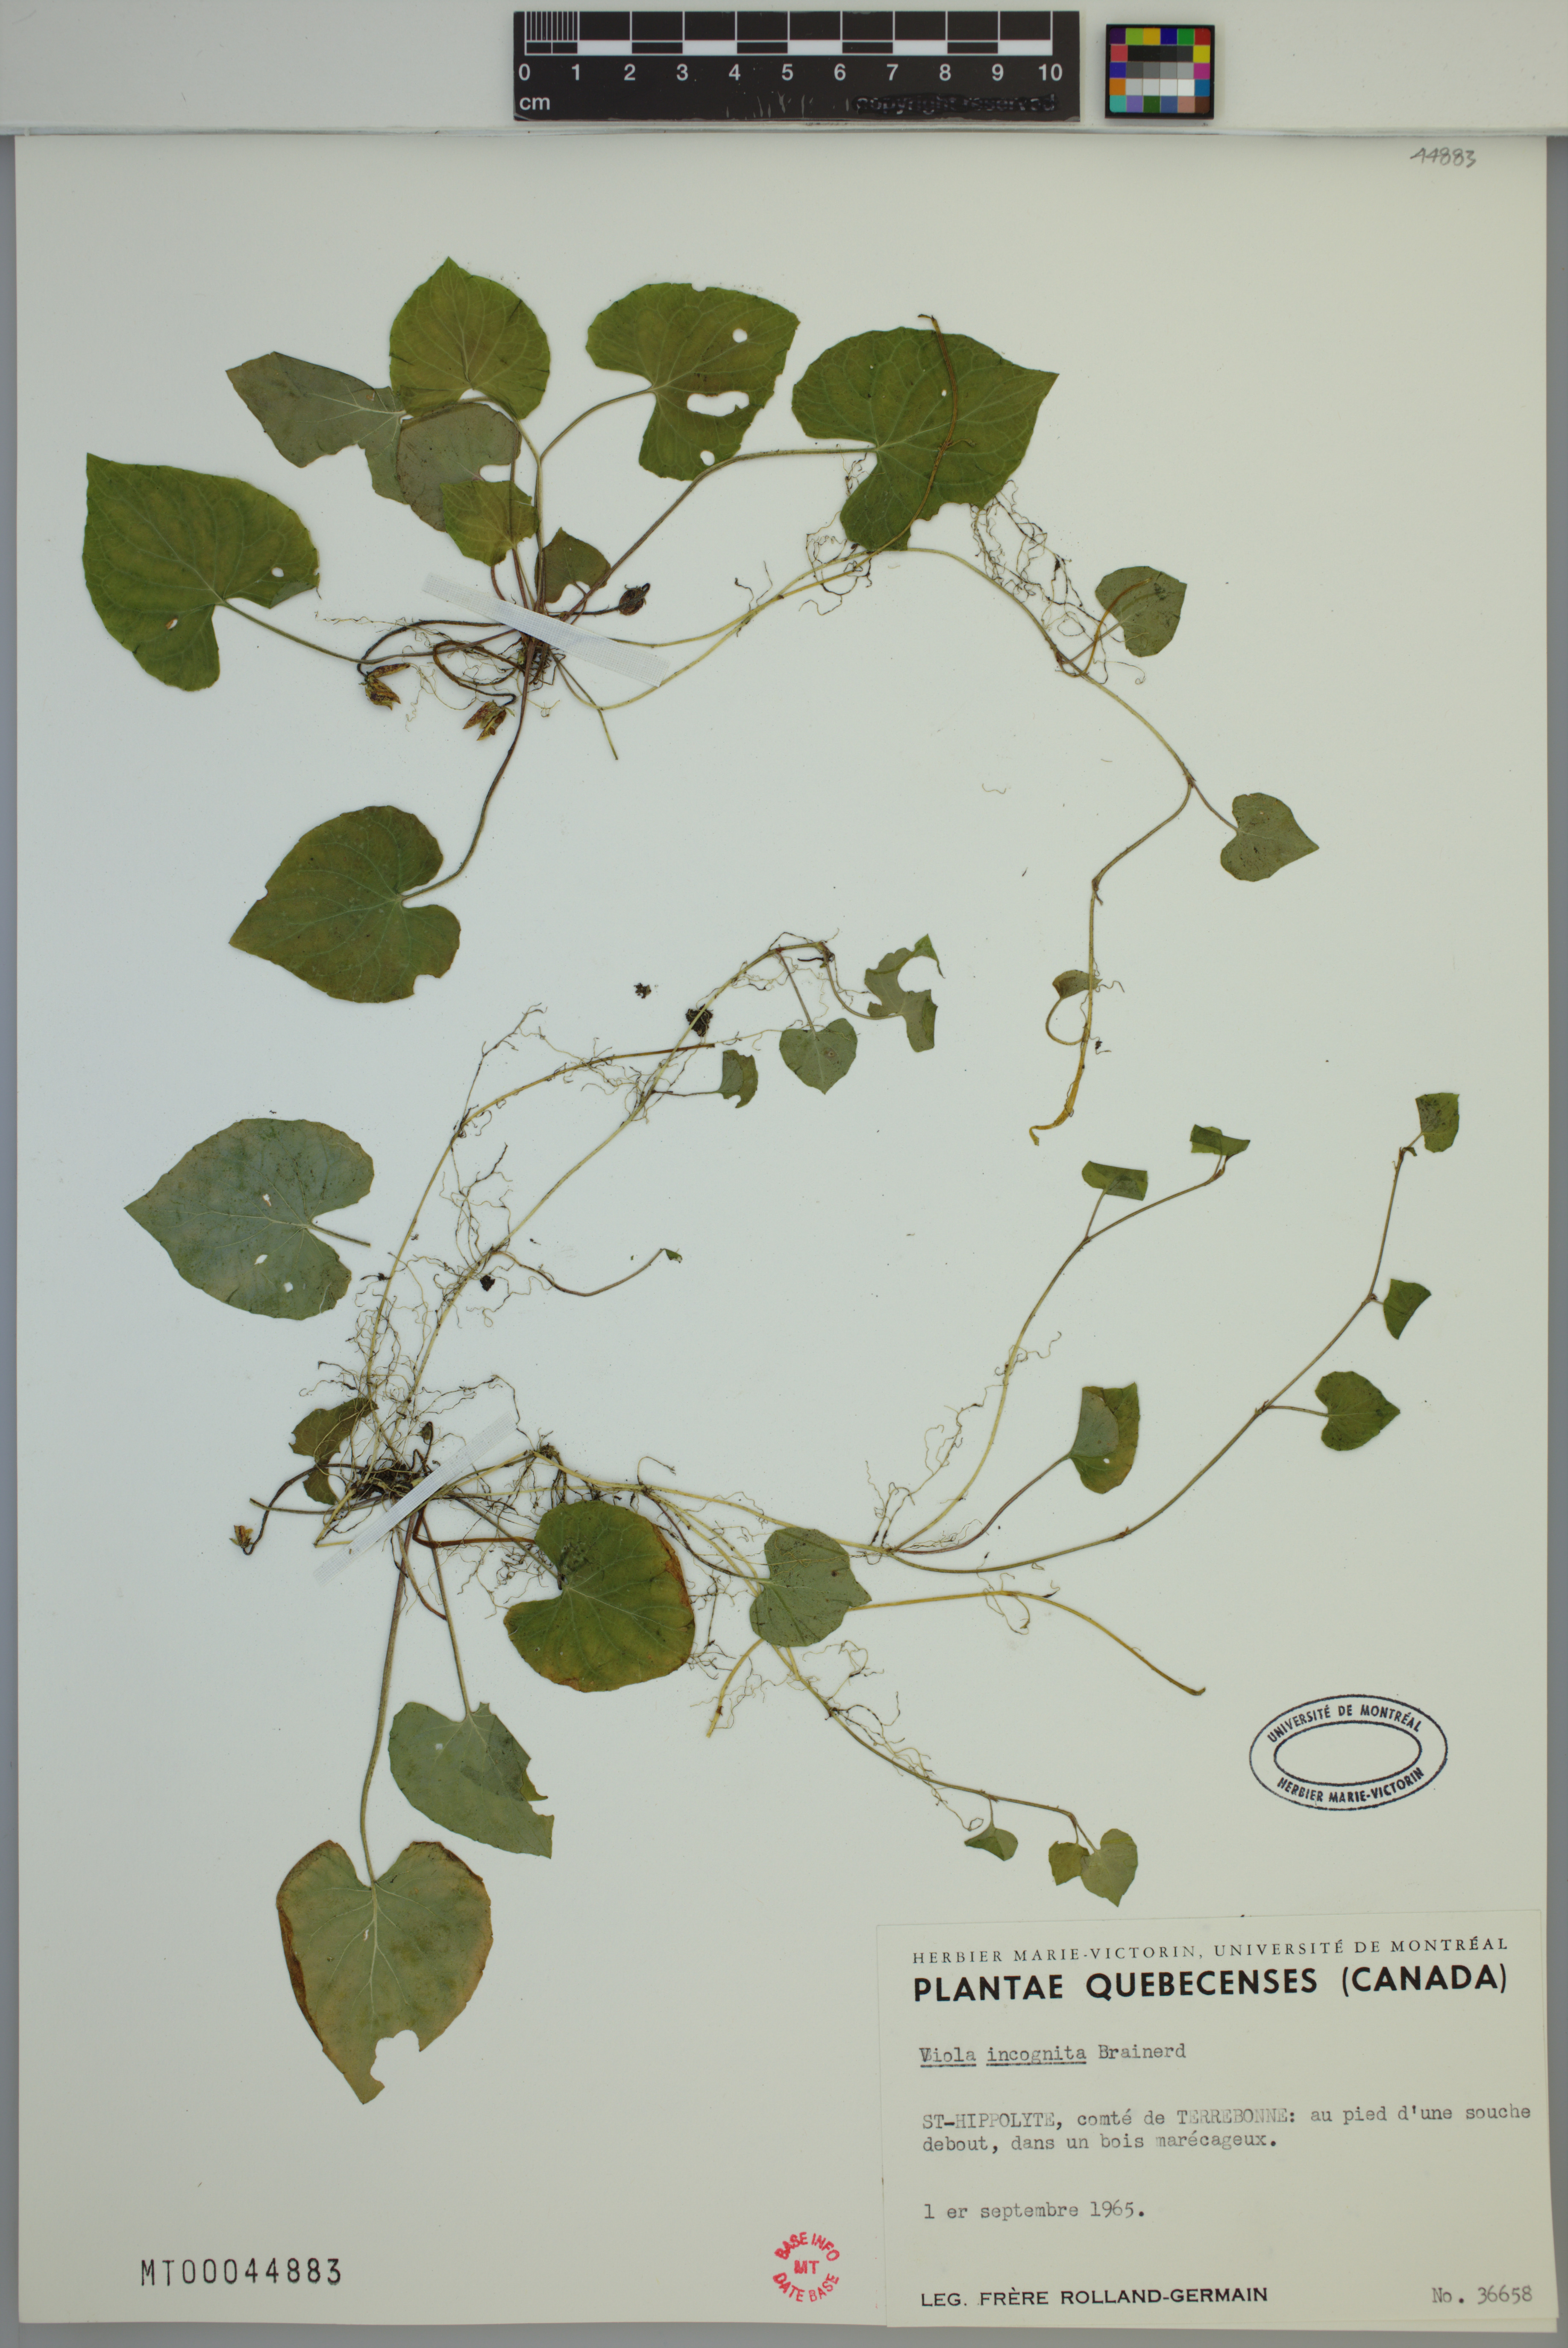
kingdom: Plantae
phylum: Tracheophyta
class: Magnoliopsida
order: Malpighiales
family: Violaceae
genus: Viola
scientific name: Viola blanda
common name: Sweet white violet
